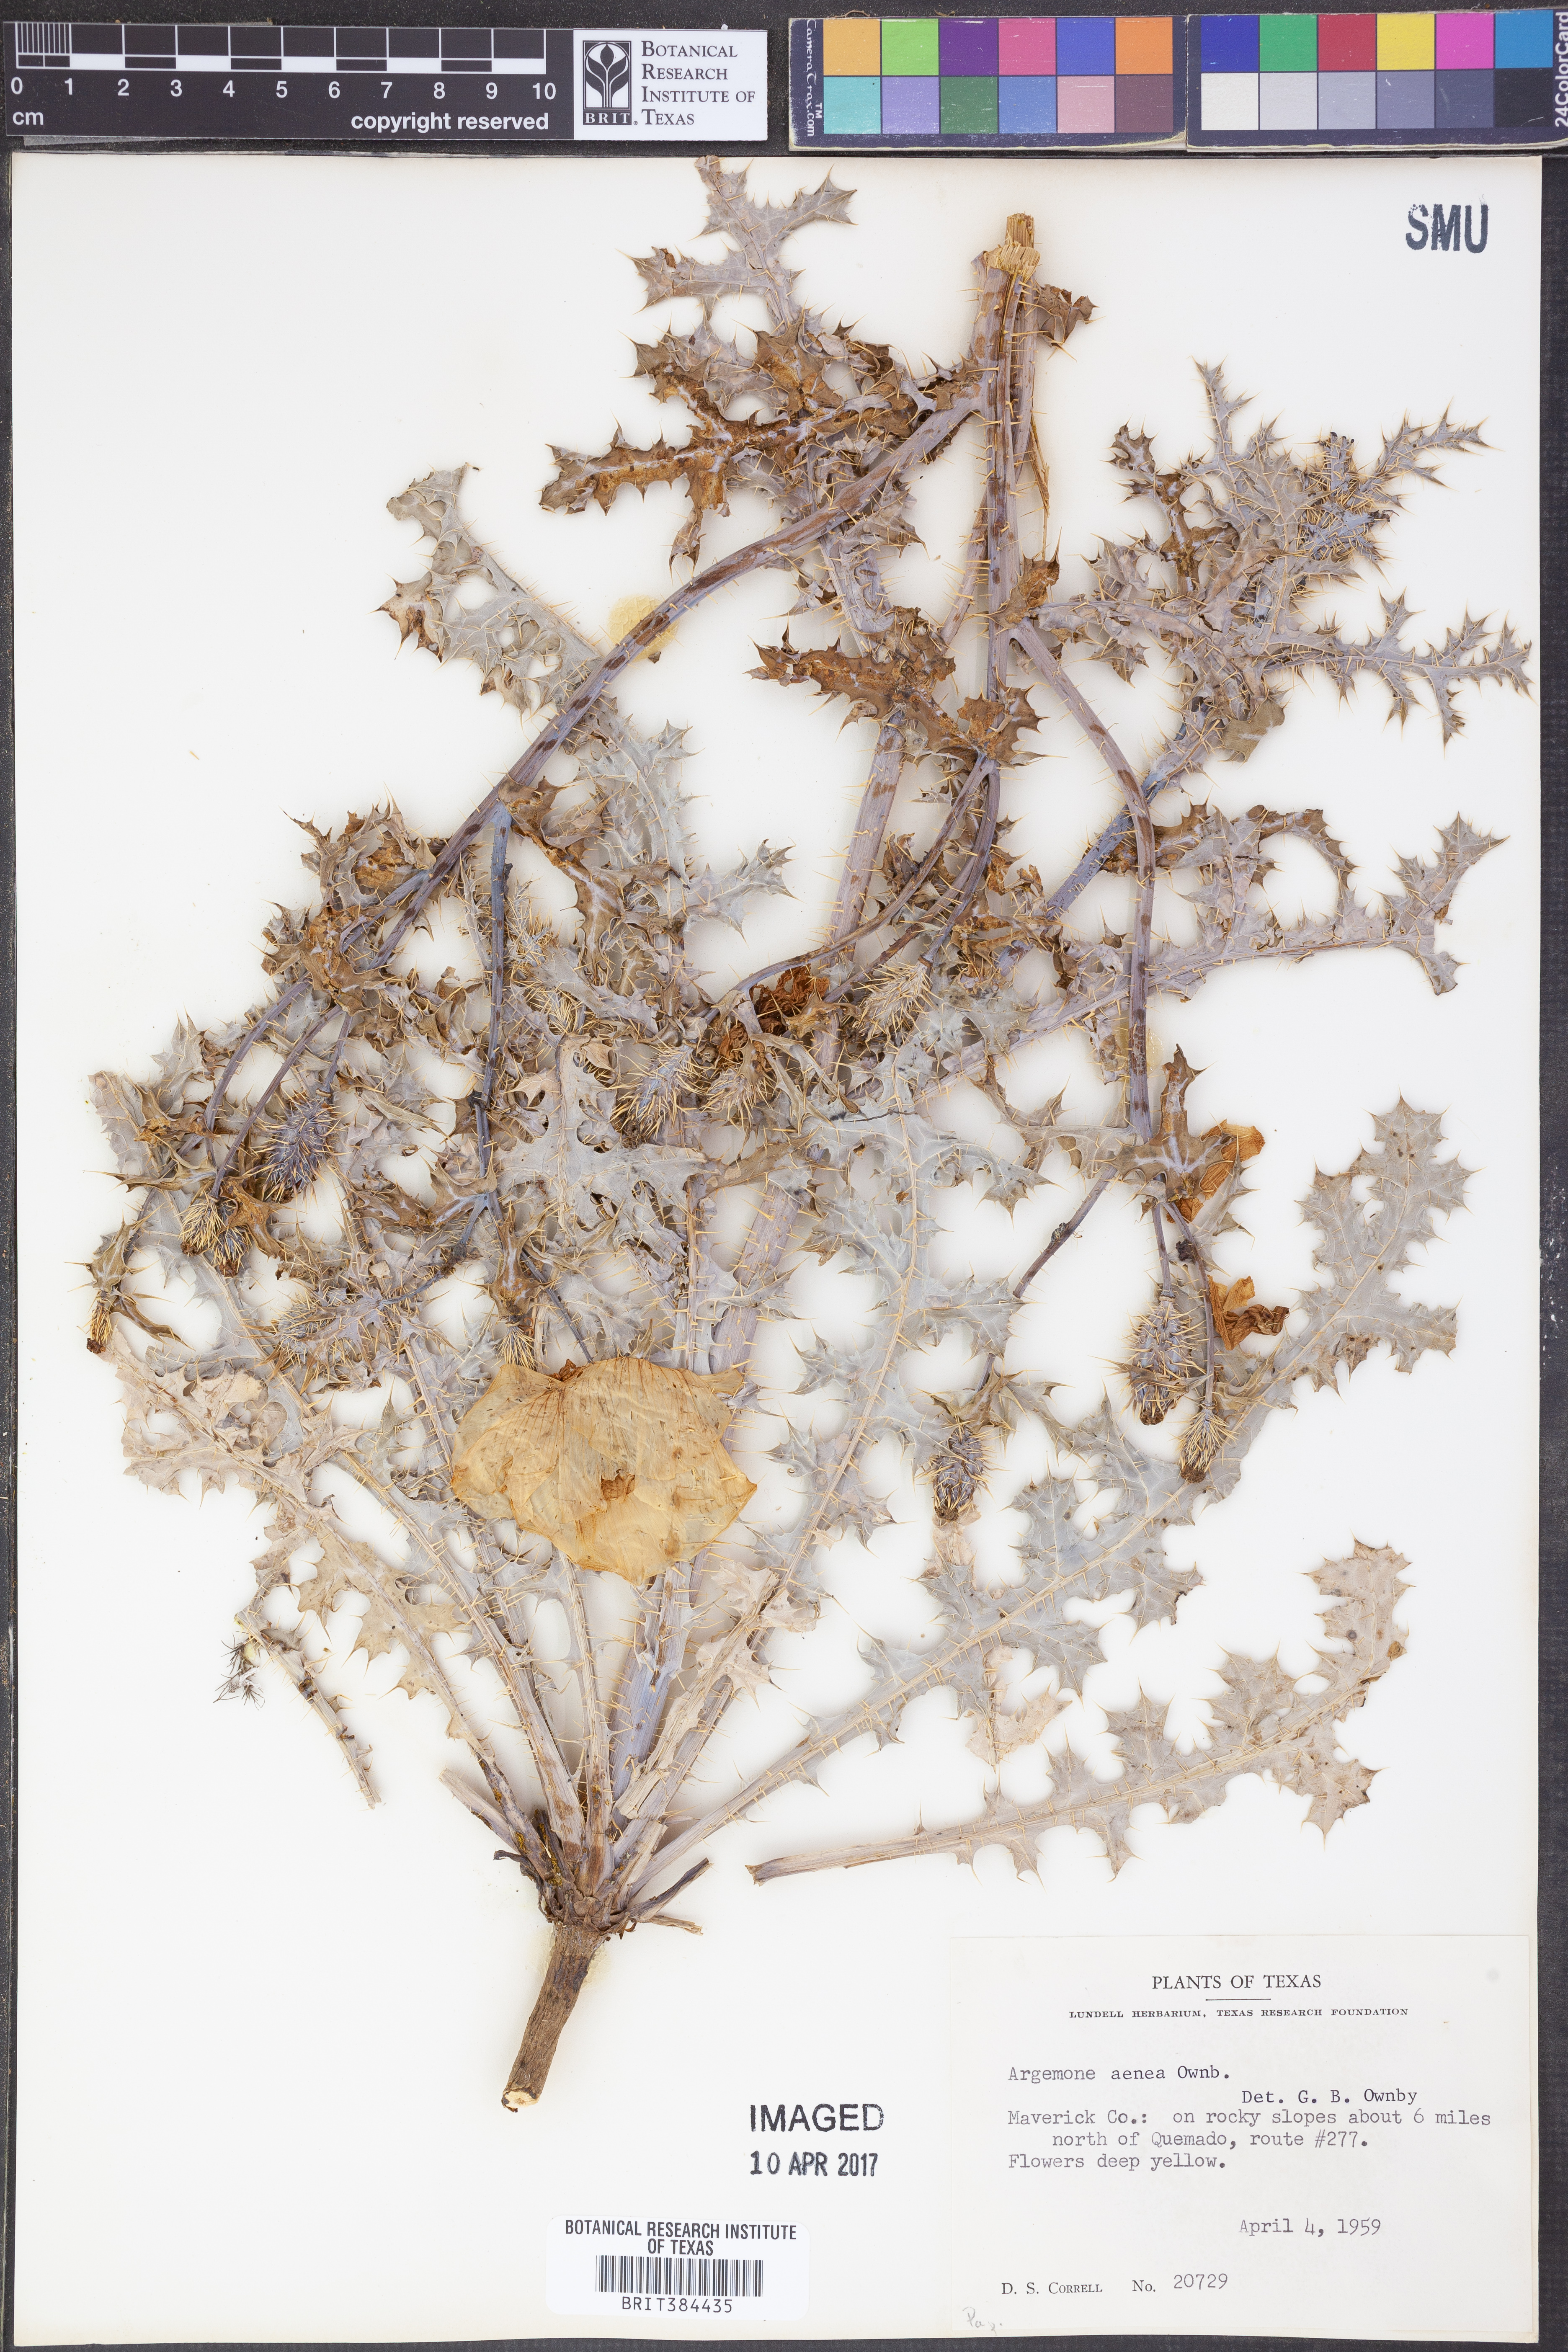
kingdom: Plantae
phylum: Tracheophyta
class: Magnoliopsida
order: Ranunculales
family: Papaveraceae
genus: Argemone
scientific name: Argemone aenea
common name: Golden prickly-poppy
